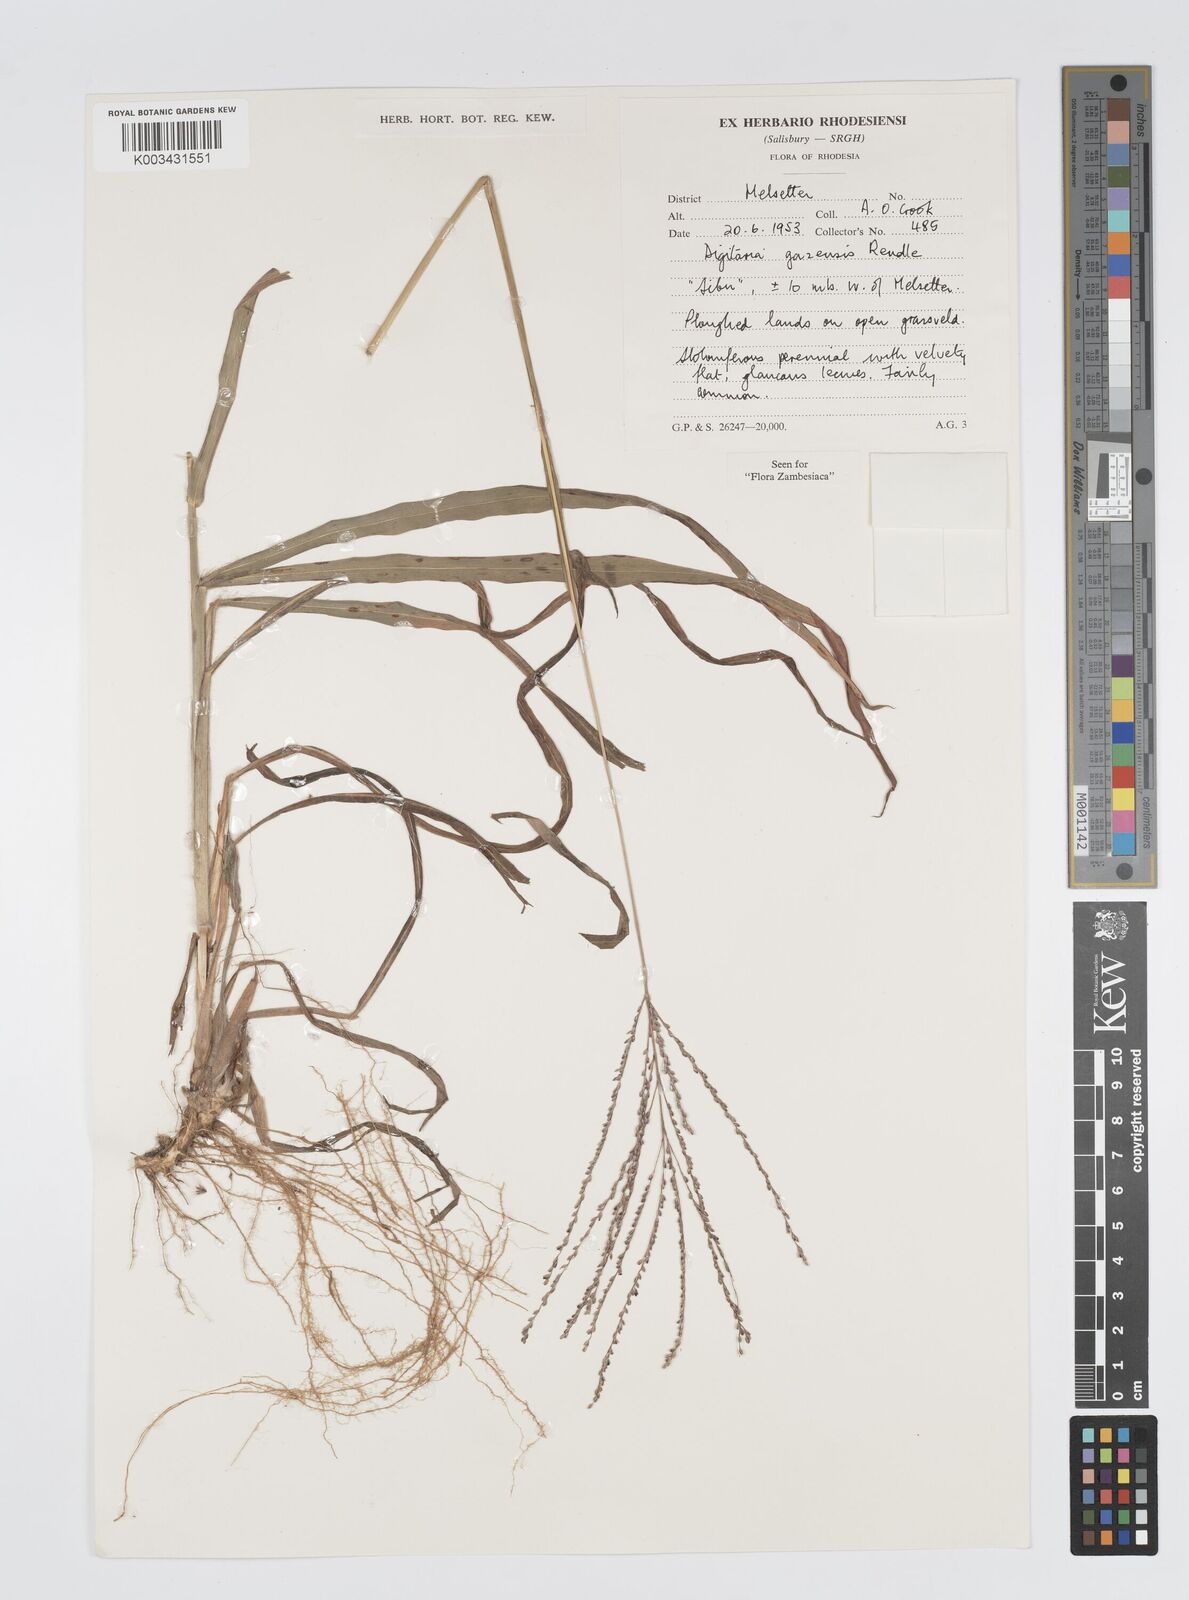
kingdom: Plantae
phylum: Tracheophyta
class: Liliopsida
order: Poales
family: Poaceae
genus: Digitaria
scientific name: Digitaria gazensis
